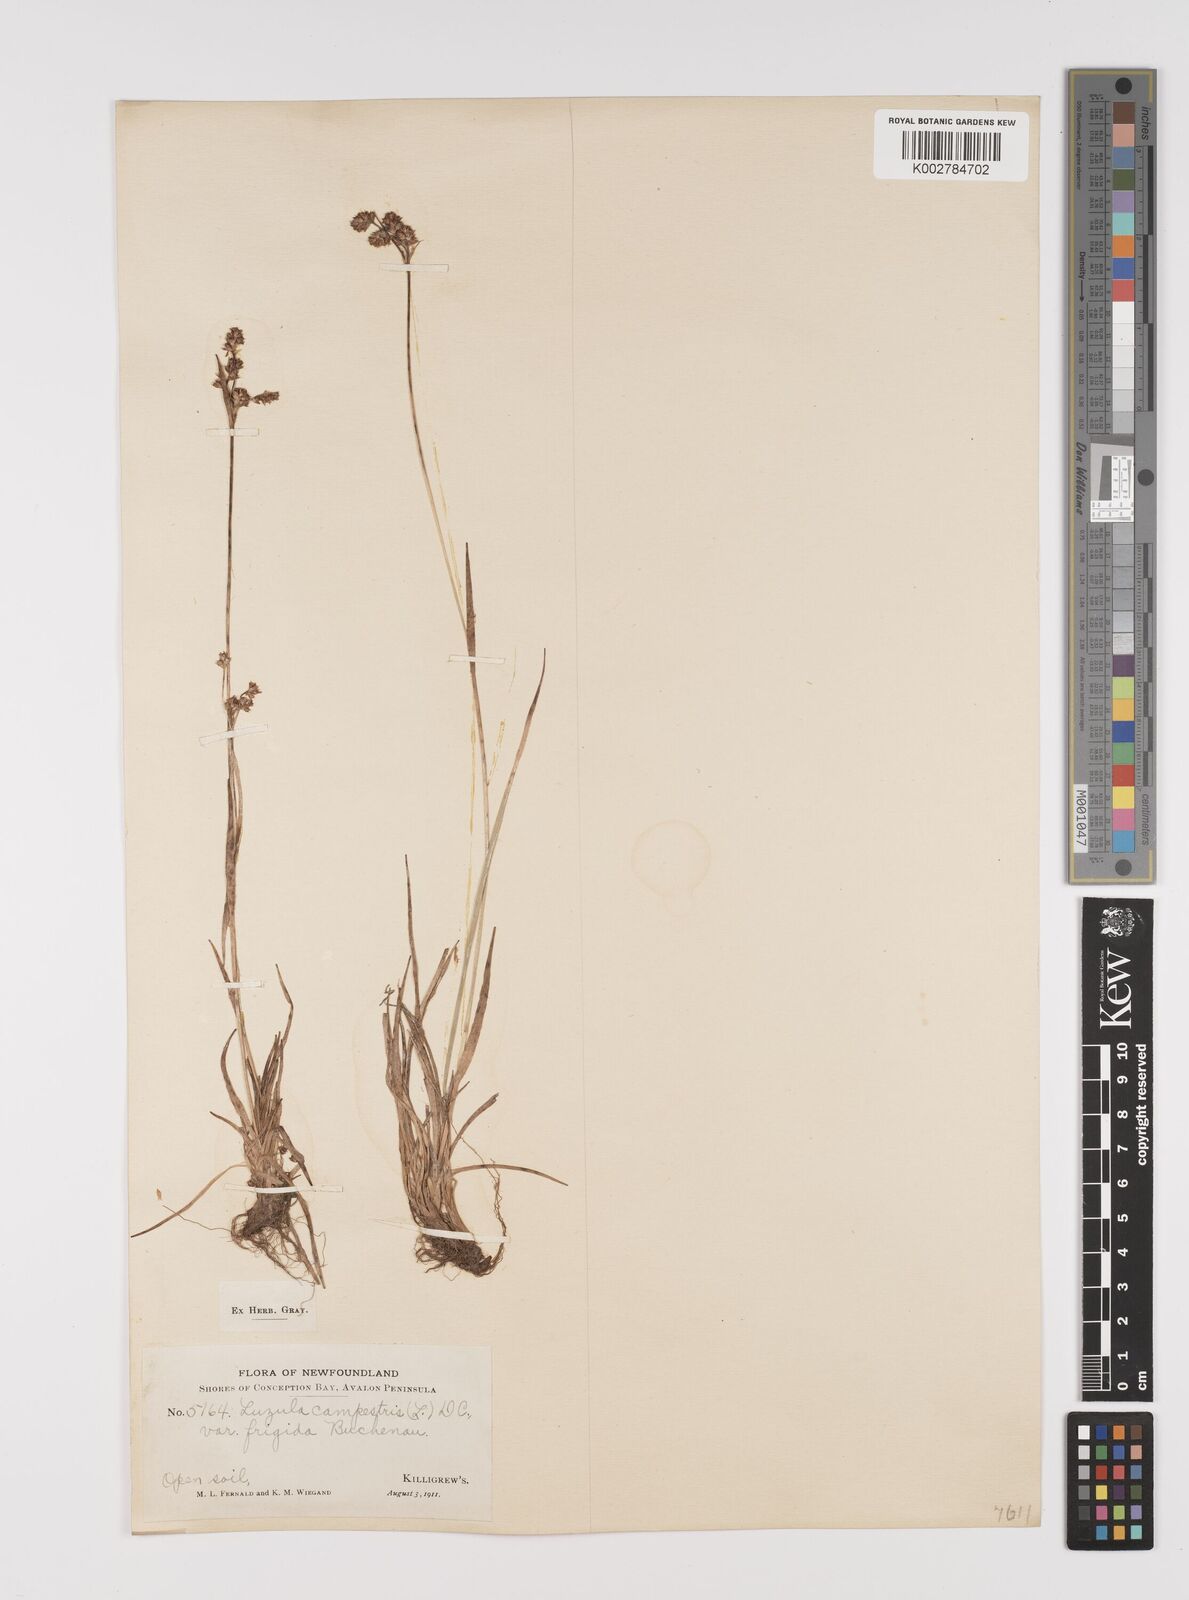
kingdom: Plantae
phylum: Tracheophyta
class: Liliopsida
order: Poales
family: Juncaceae
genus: Luzula
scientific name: Luzula multiflora
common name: Heath wood-rush
